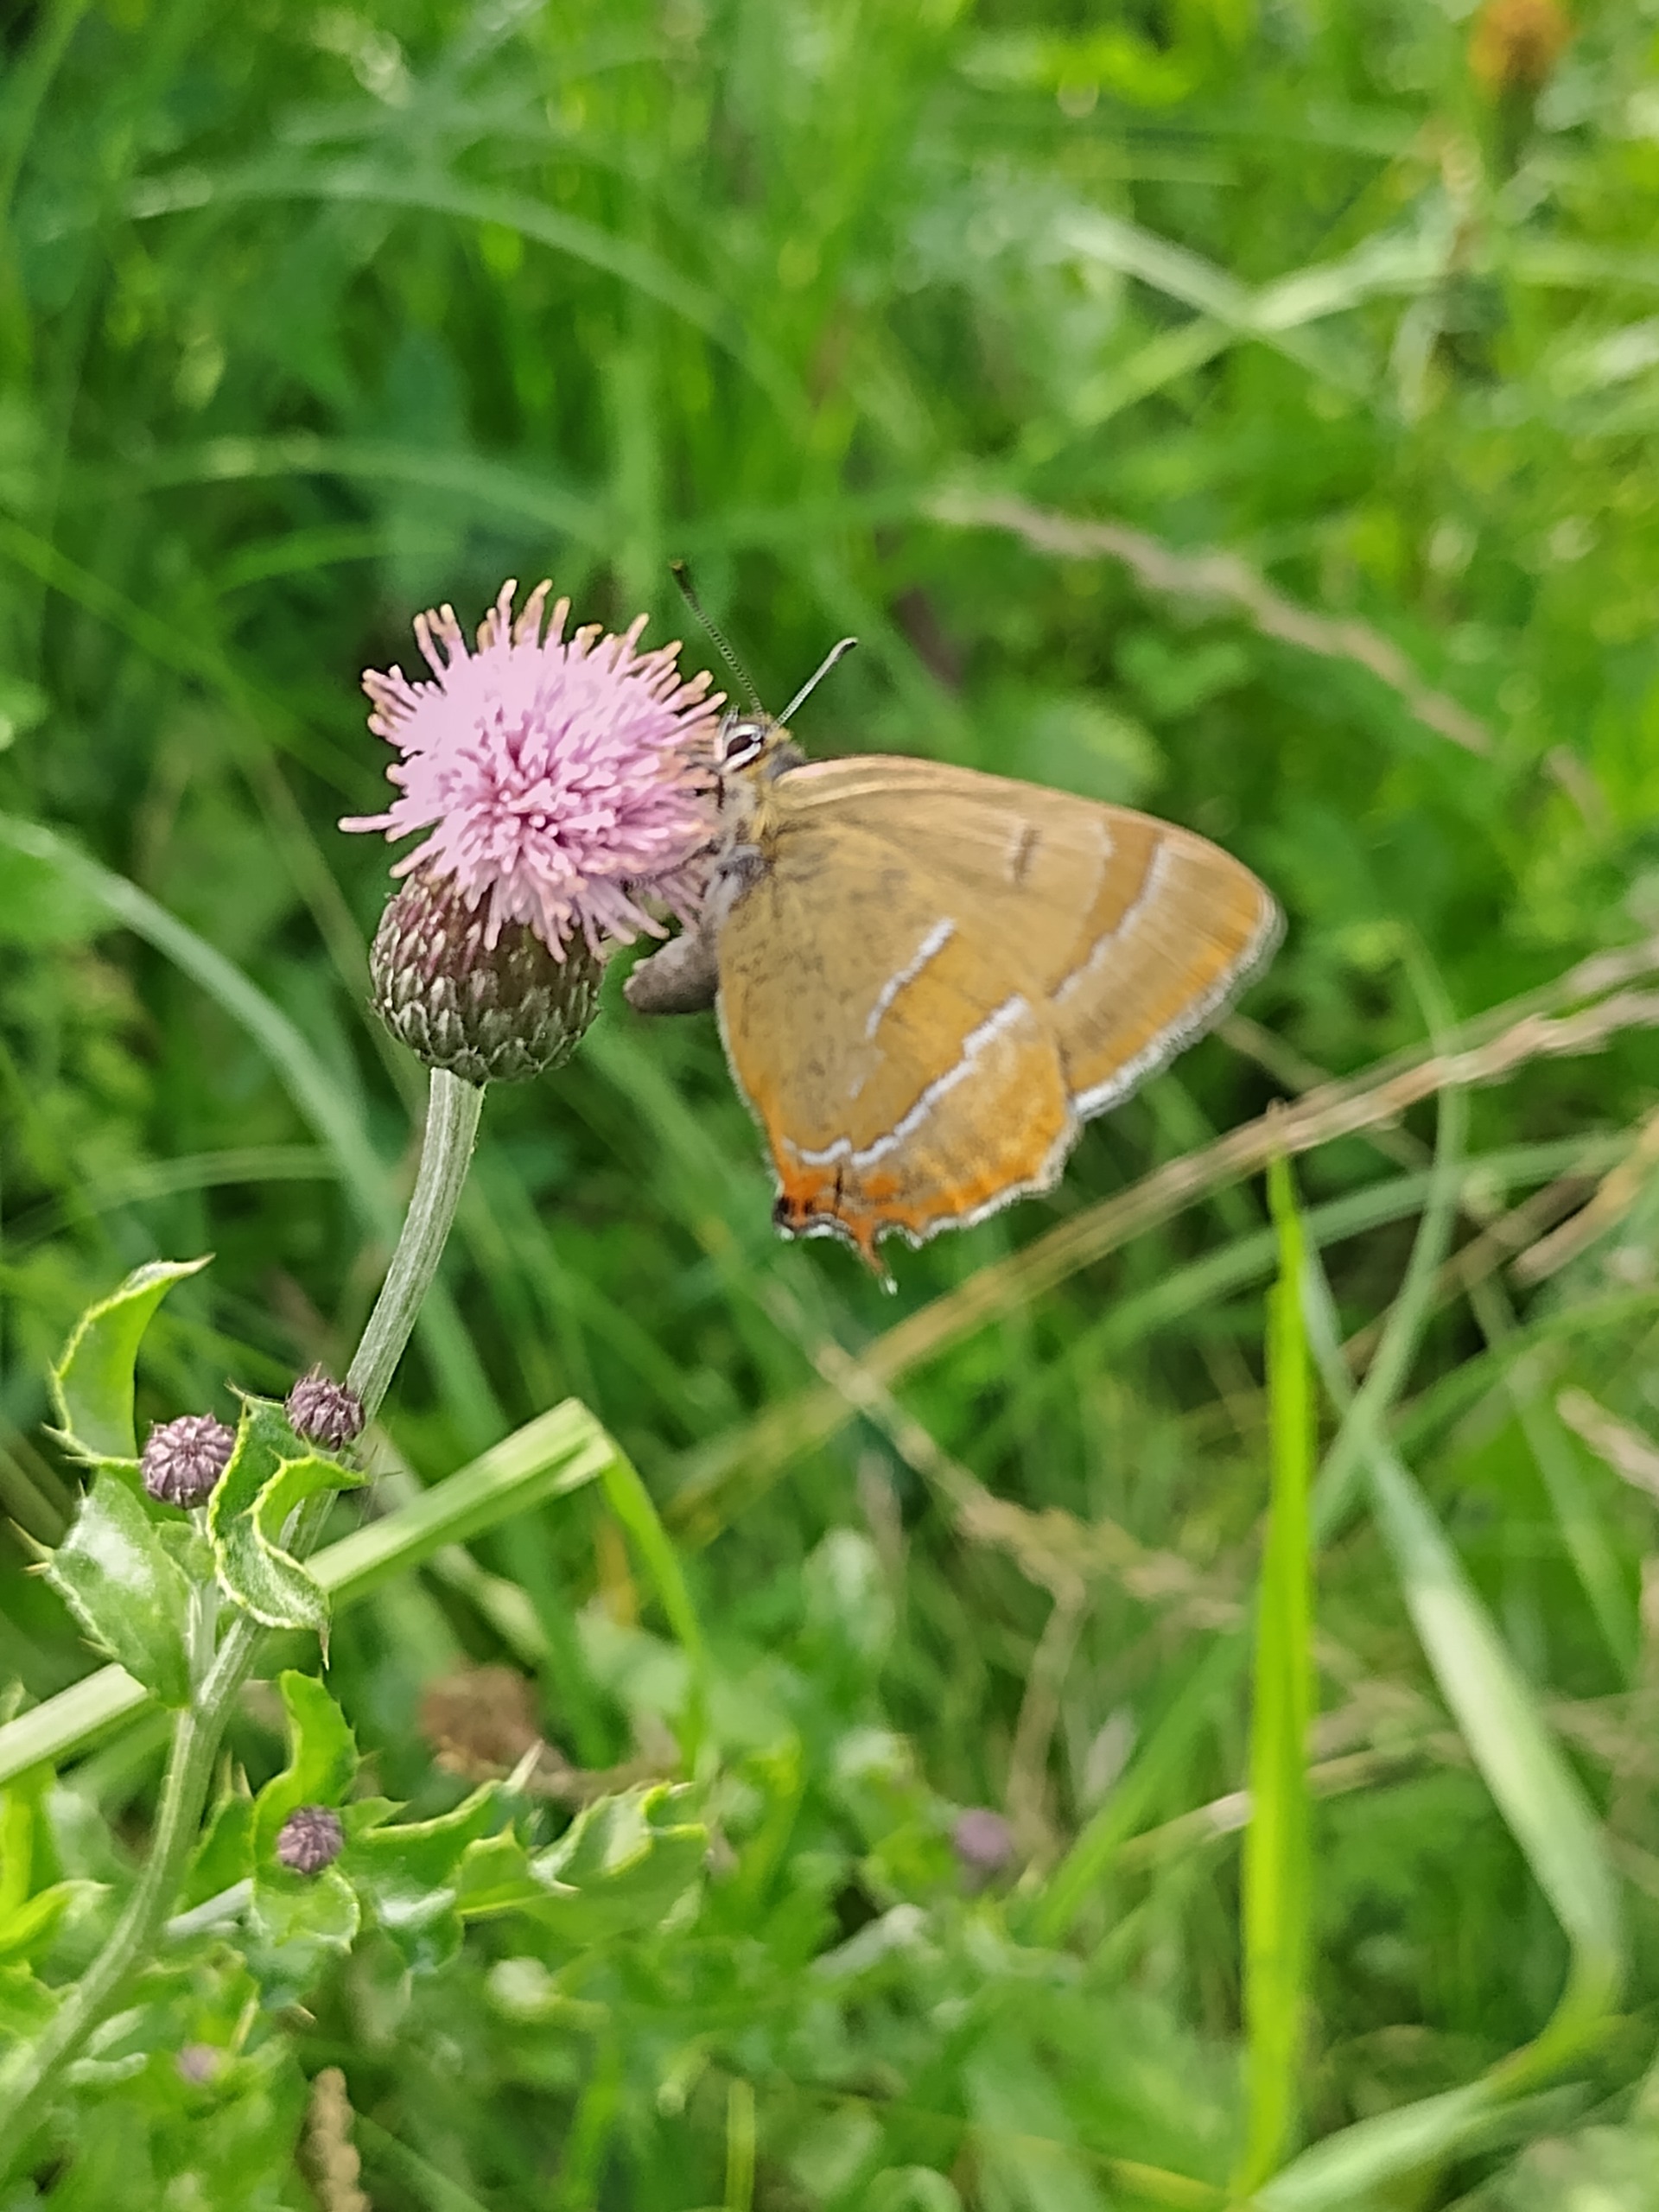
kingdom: Animalia
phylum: Arthropoda
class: Insecta
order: Lepidoptera
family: Lycaenidae
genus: Thecla
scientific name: Thecla betulae
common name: Guldhale
